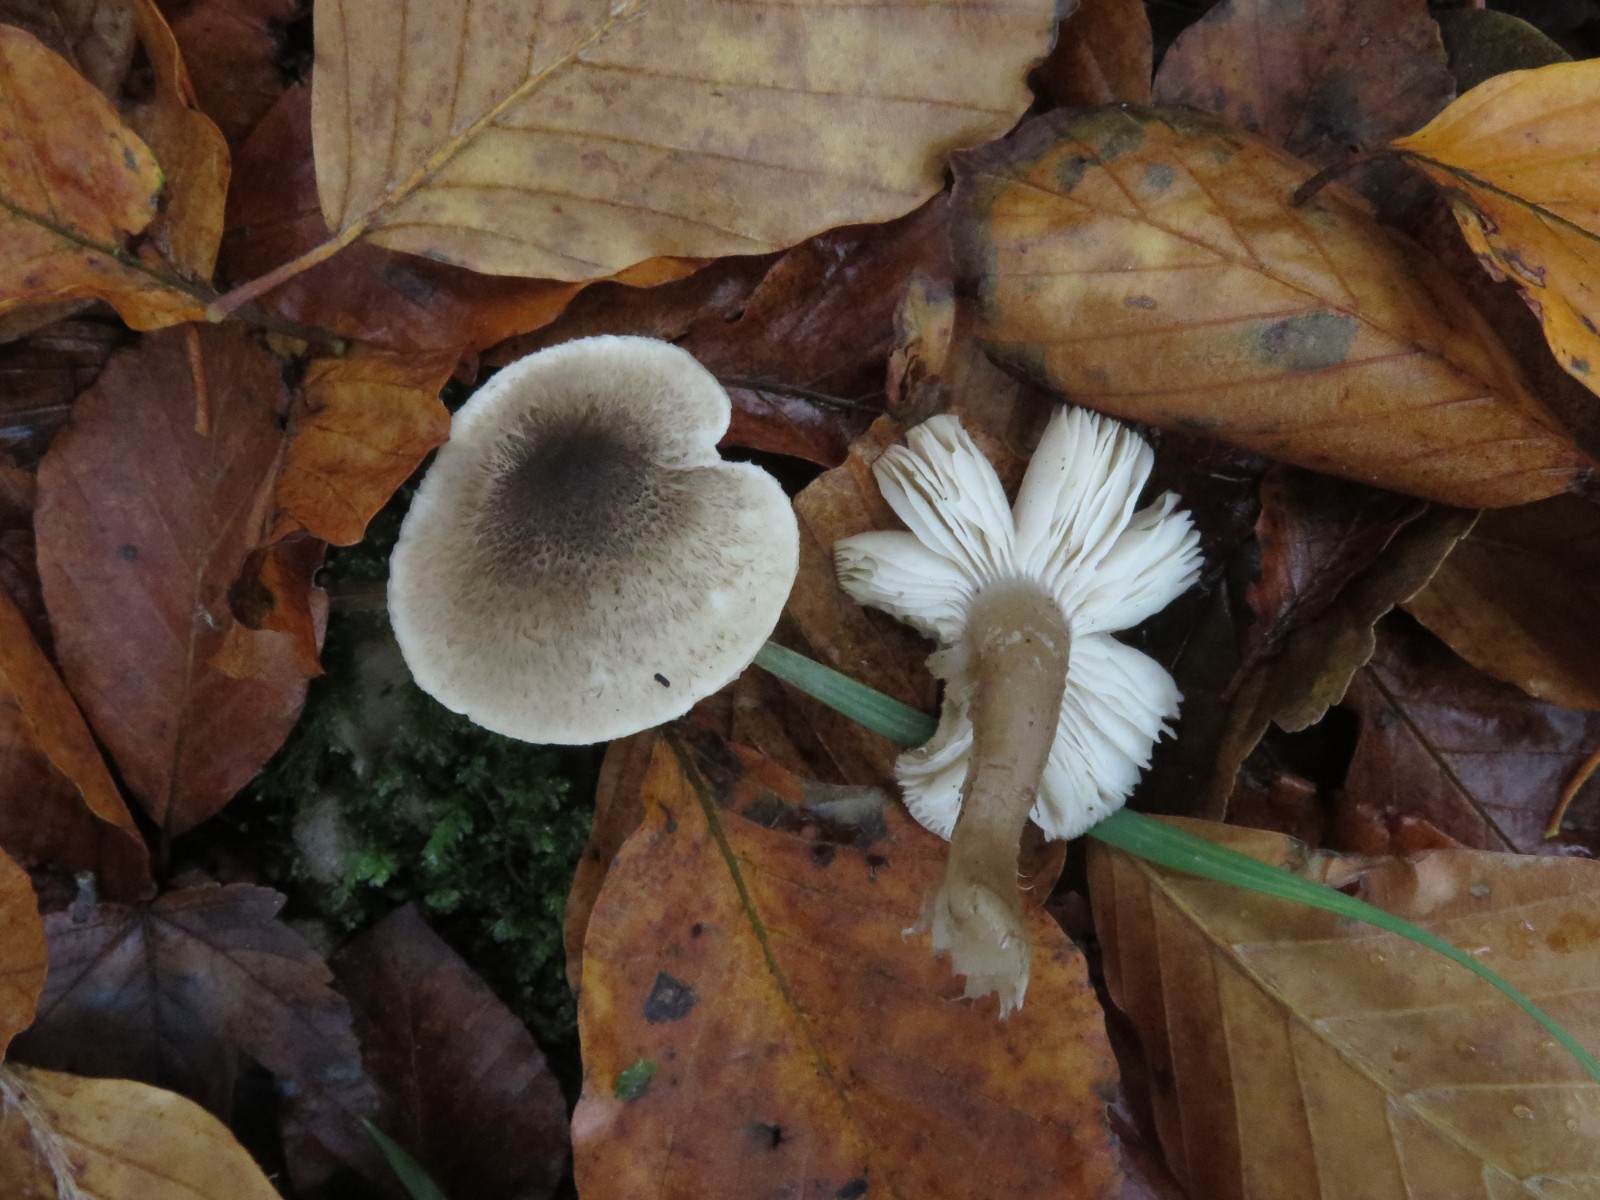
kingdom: Fungi
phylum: Basidiomycota
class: Agaricomycetes
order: Agaricales
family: Tricholomataceae
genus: Tricholoma
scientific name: Tricholoma
